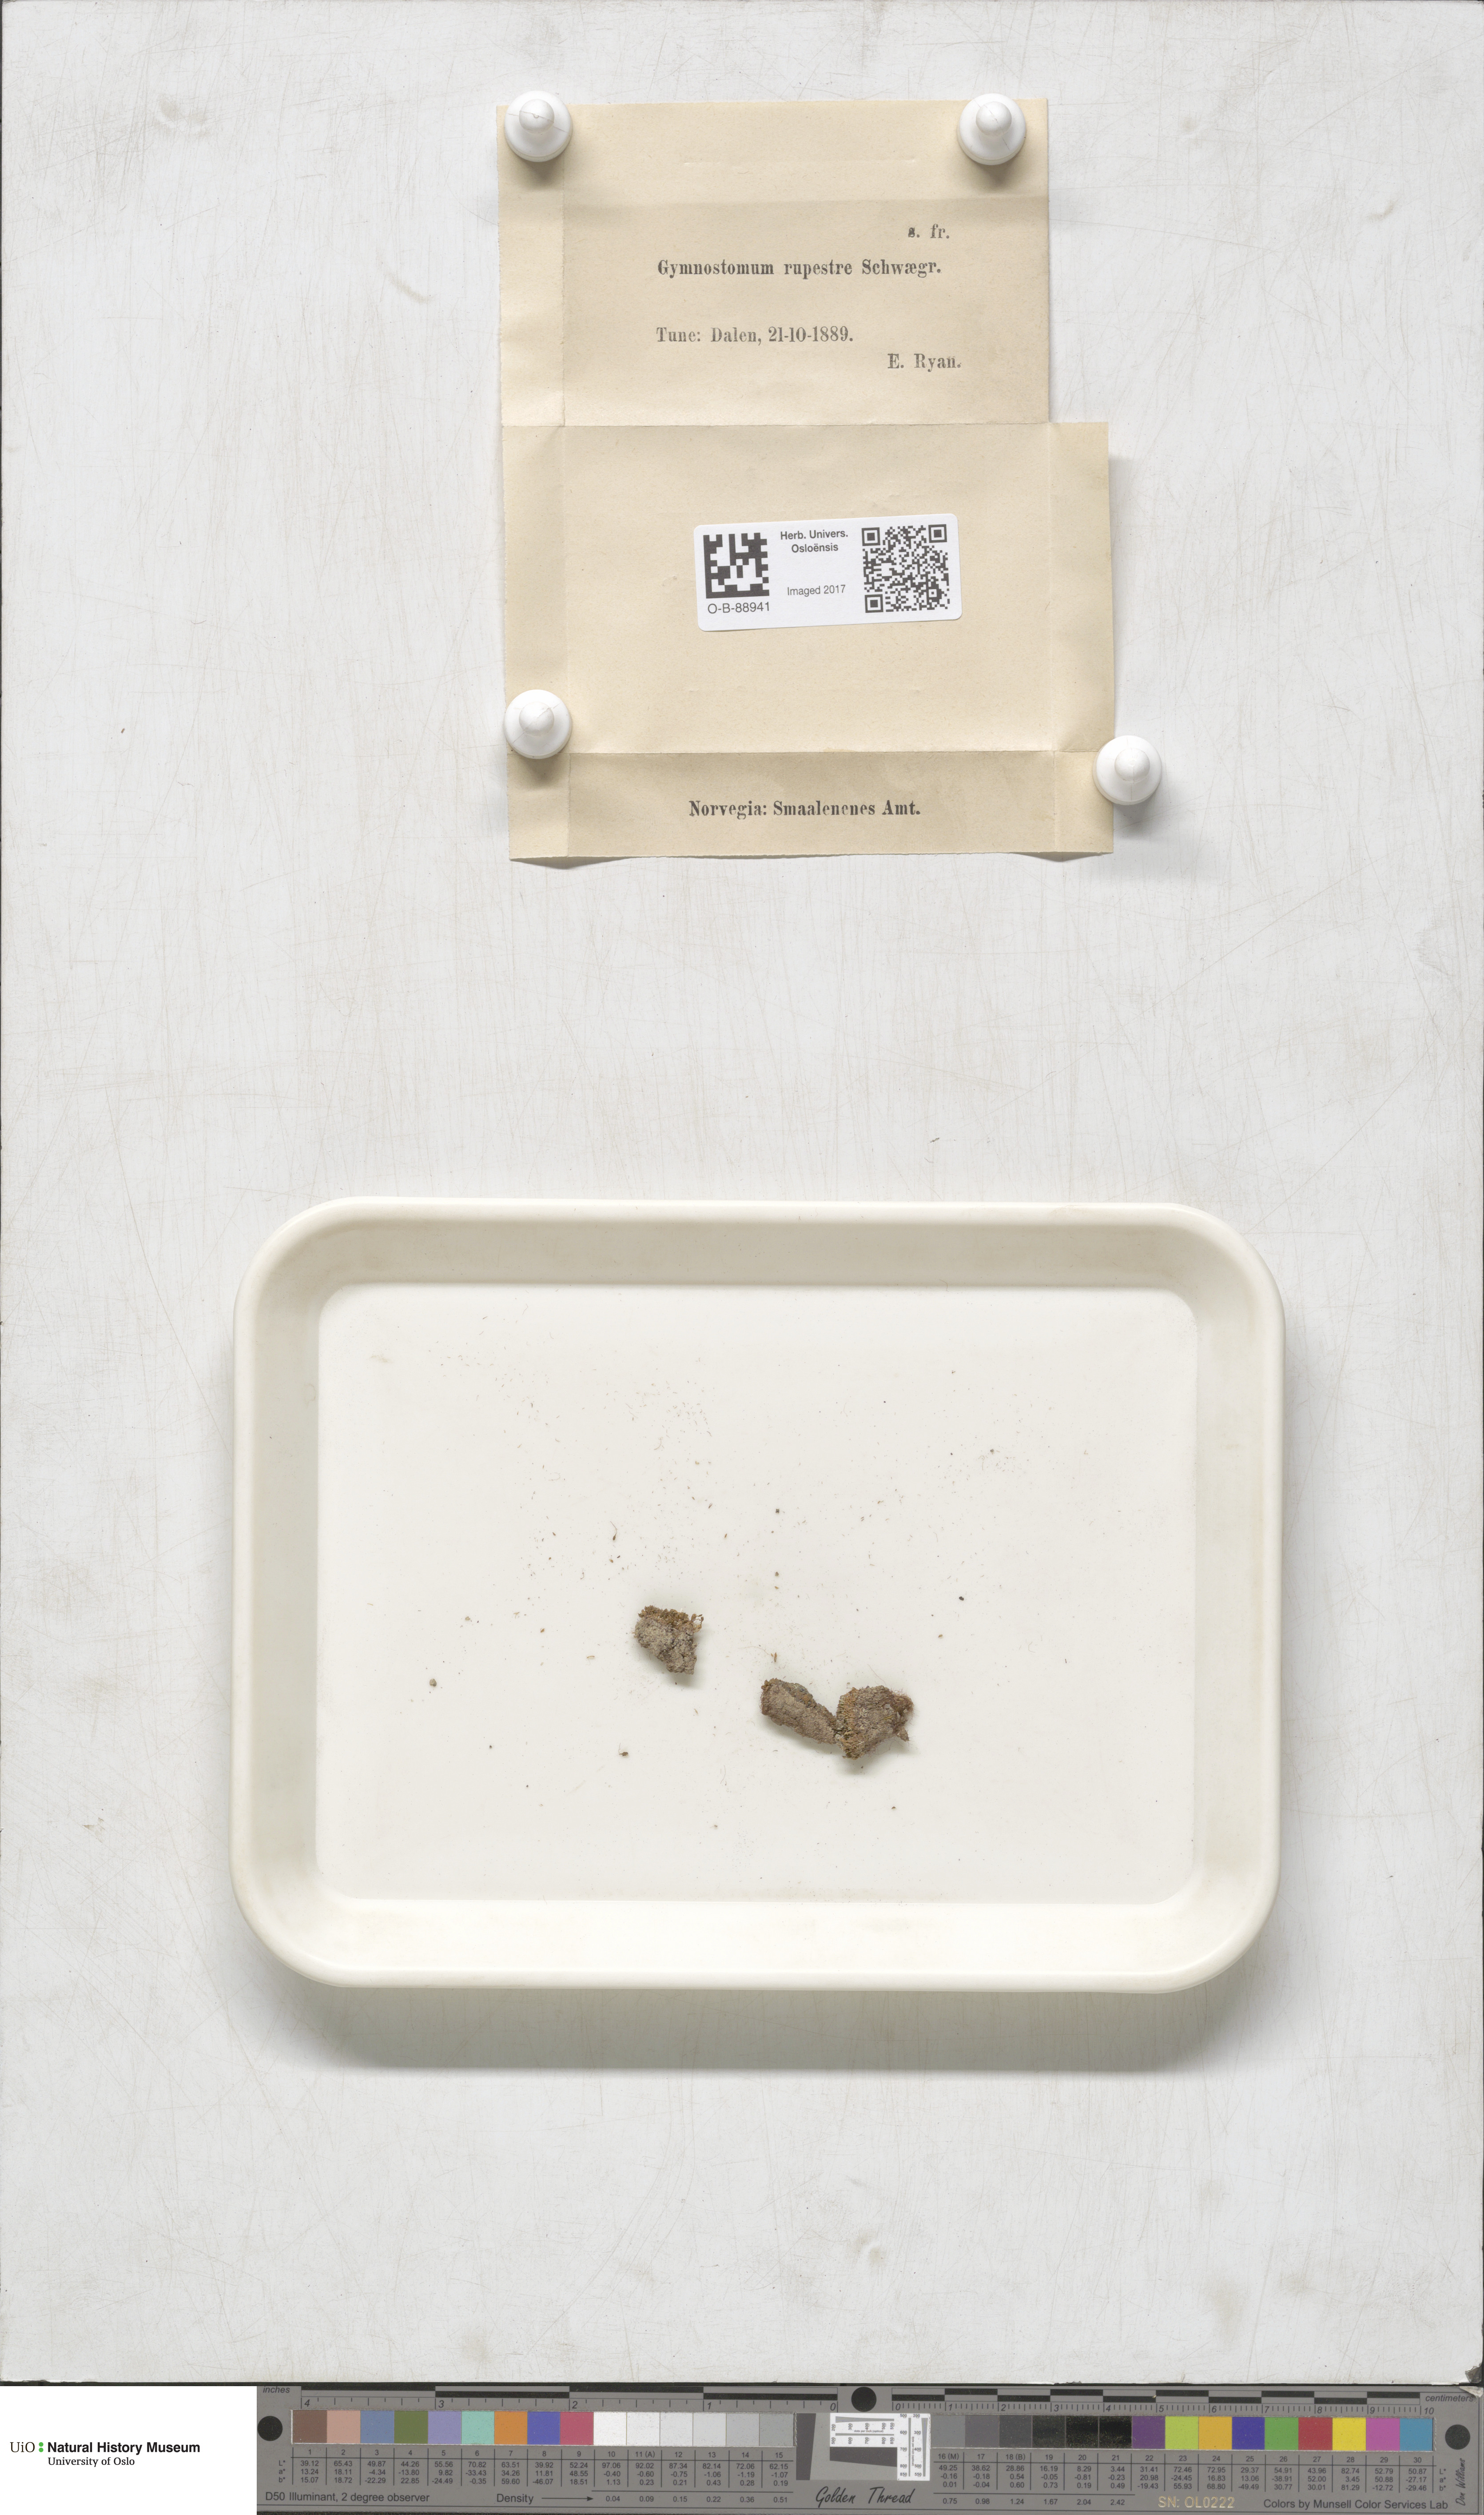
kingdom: Plantae
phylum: Bryophyta
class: Bryopsida
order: Pottiales
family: Pottiaceae
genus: Gymnostomum
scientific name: Gymnostomum aeruginosum
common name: Verdigris tufa-moss
